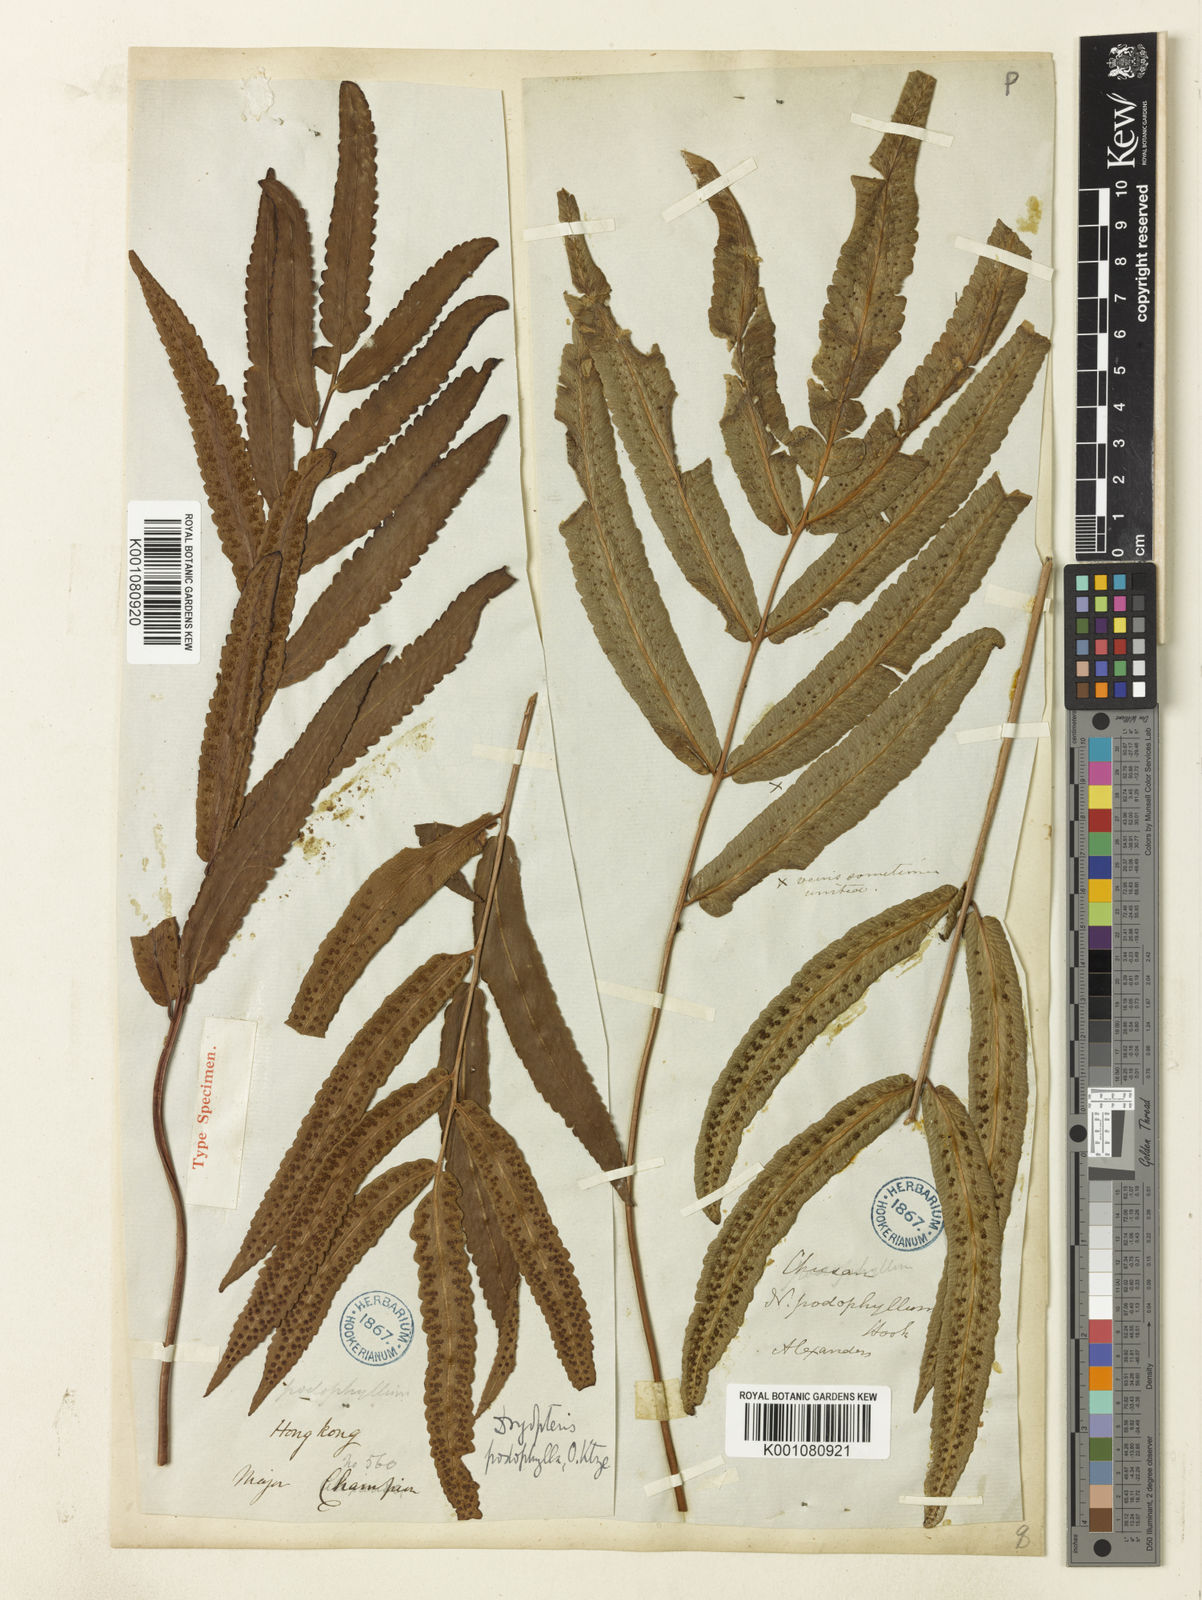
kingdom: Plantae
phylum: Tracheophyta
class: Polypodiopsida
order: Polypodiales
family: Dryopteridaceae
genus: Dryopteris
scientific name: Dryopteris podophylla
